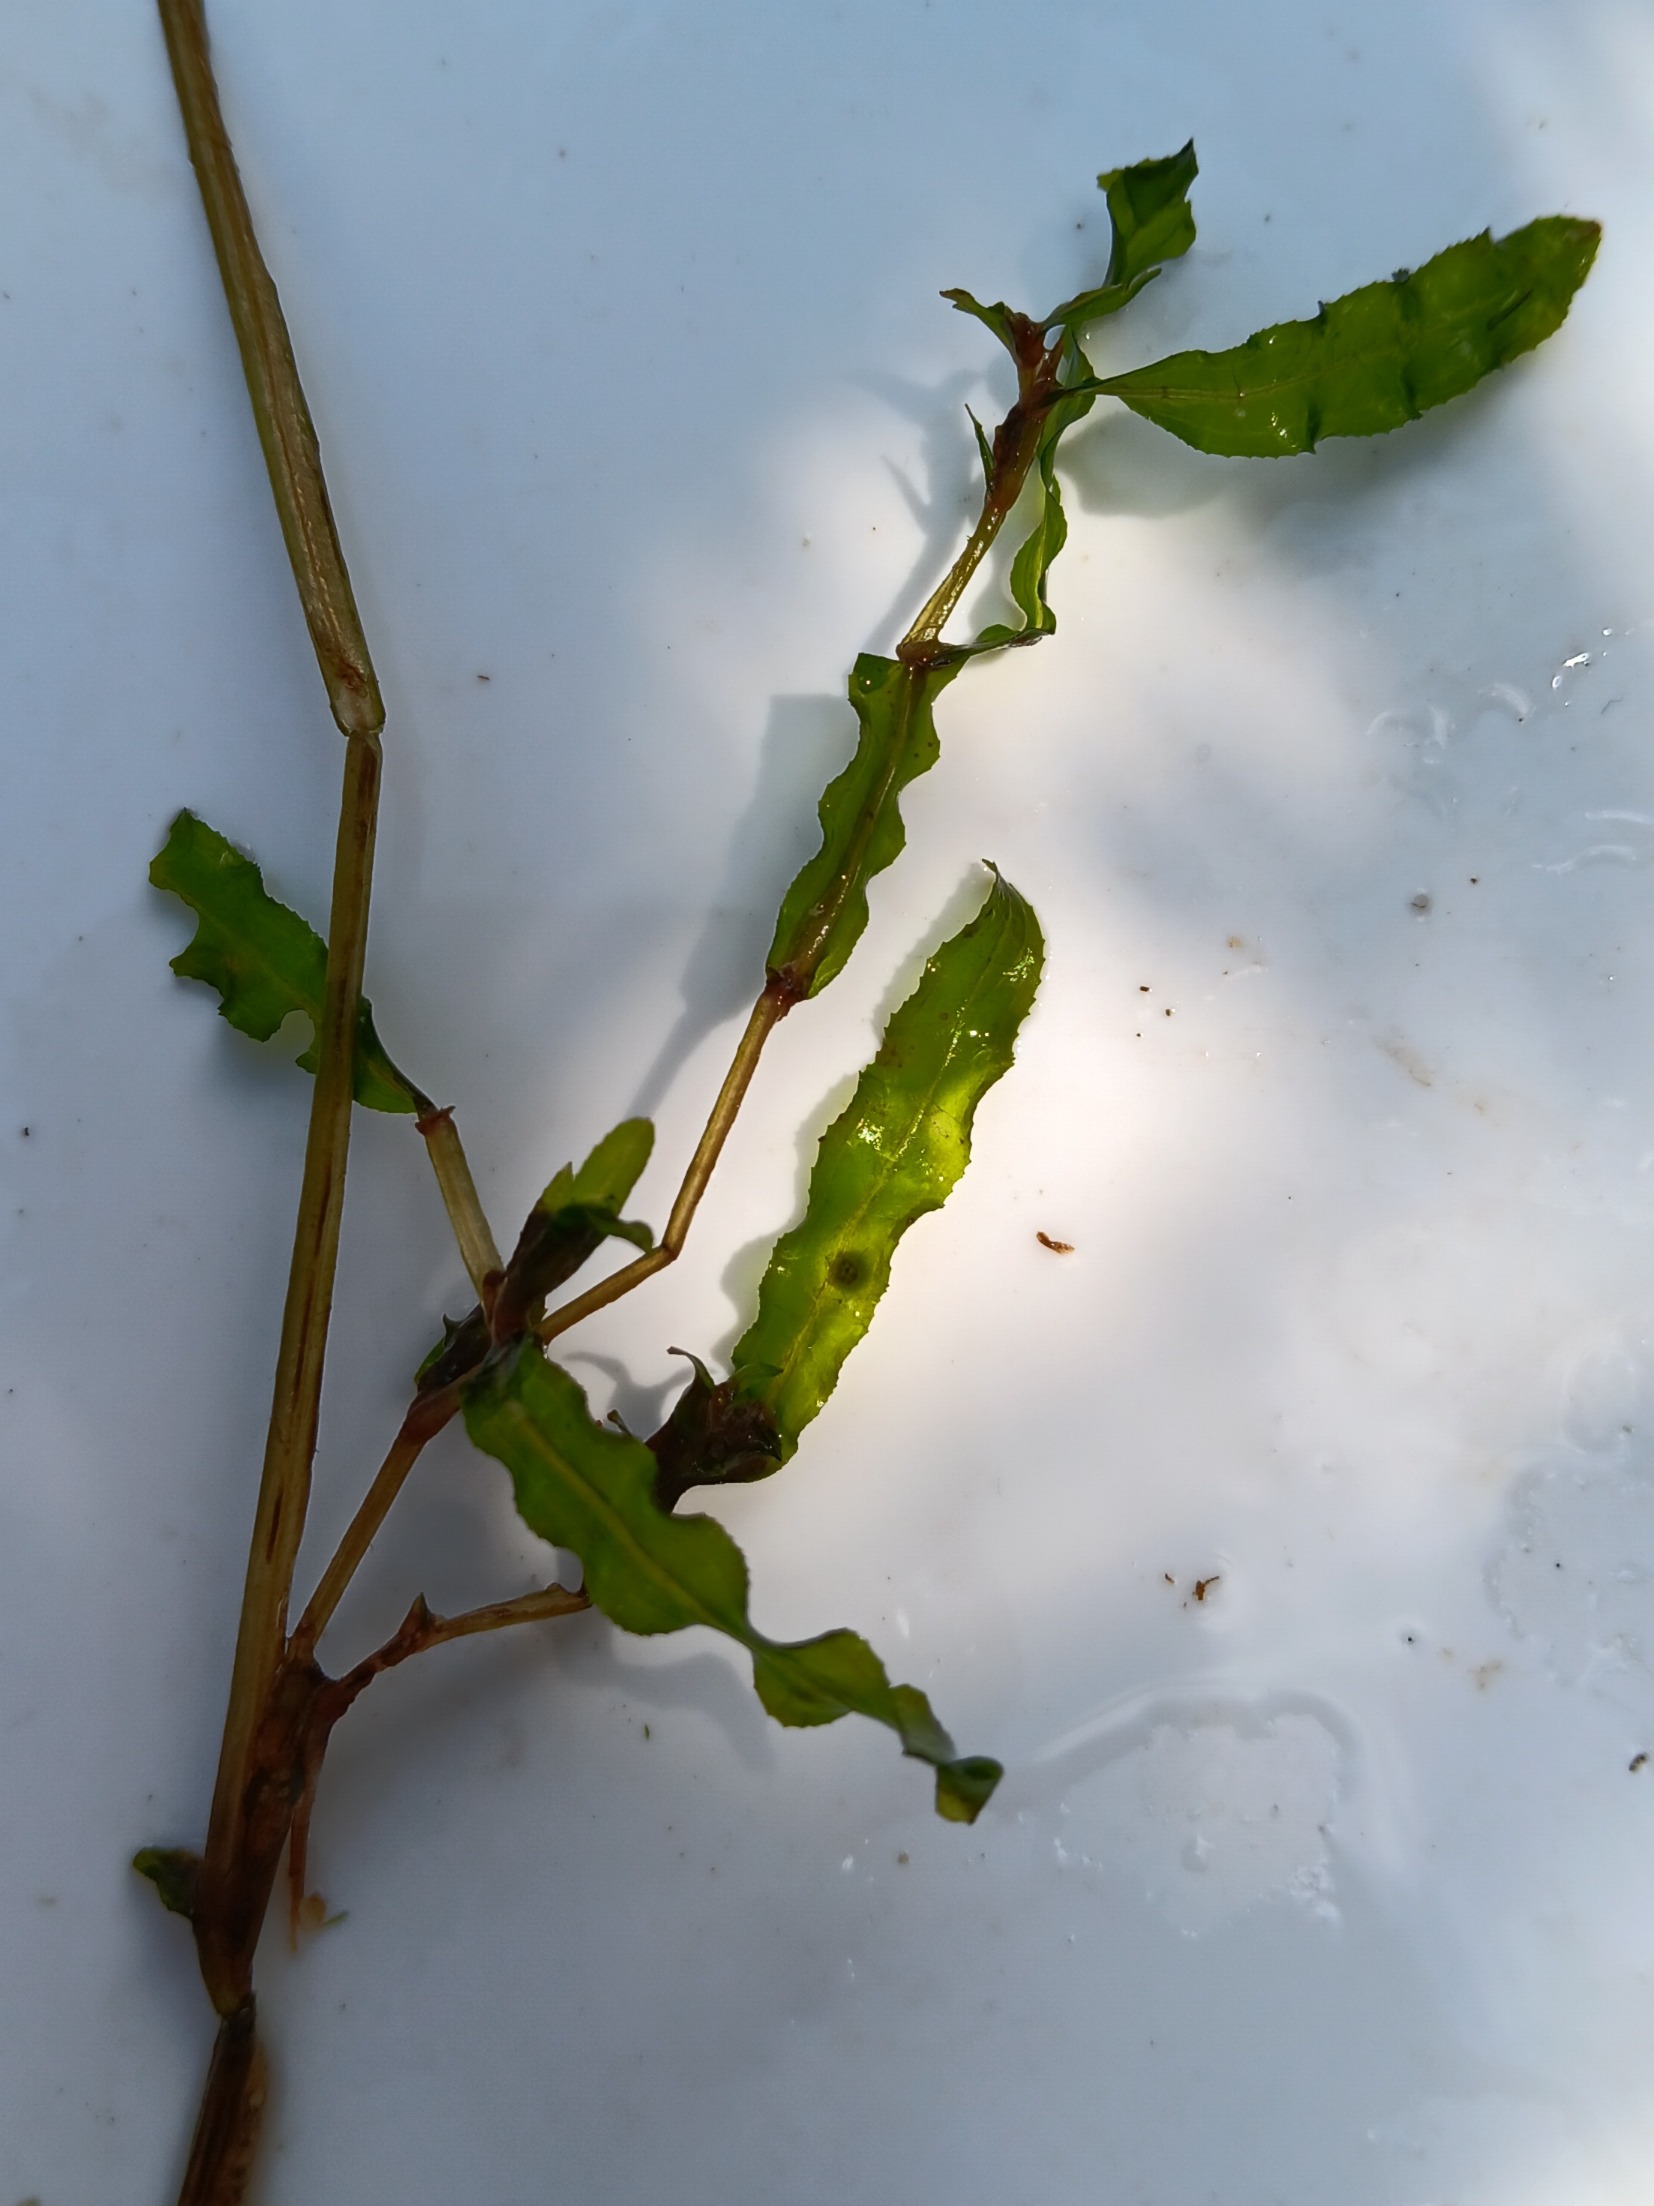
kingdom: Plantae
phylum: Tracheophyta
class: Liliopsida
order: Alismatales
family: Potamogetonaceae
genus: Potamogeton
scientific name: Potamogeton crispus
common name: Kruset vandaks
